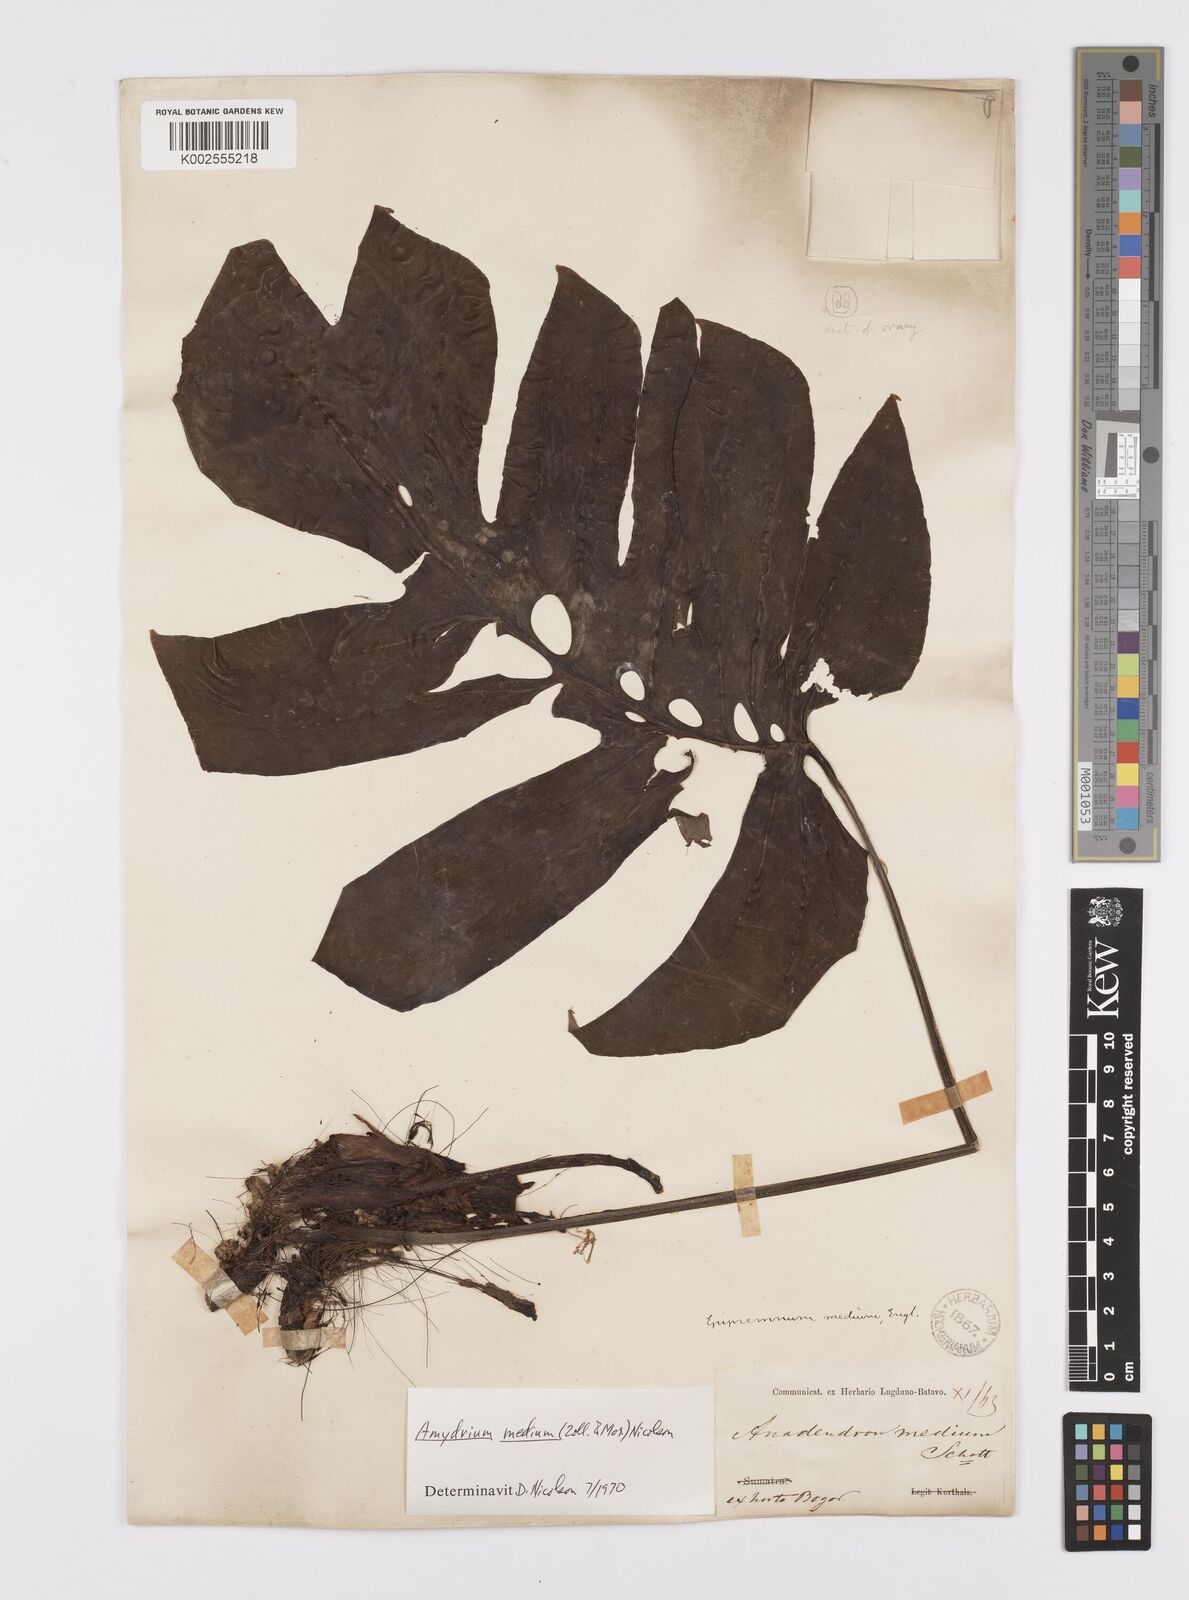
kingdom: Plantae
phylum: Tracheophyta
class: Liliopsida
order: Alismatales
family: Araceae
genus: Amydrium
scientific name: Amydrium medium
